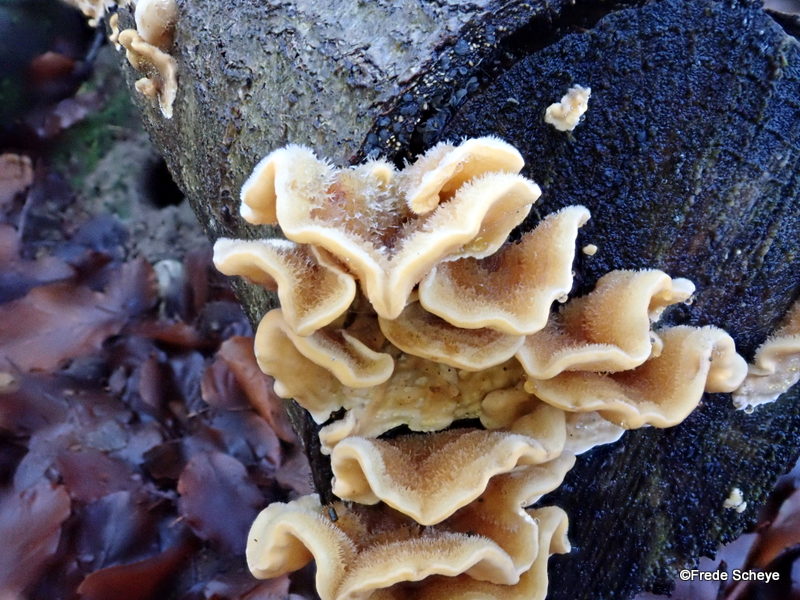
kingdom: Fungi
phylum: Basidiomycota
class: Agaricomycetes
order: Russulales
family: Stereaceae
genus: Stereum
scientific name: Stereum hirsutum
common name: håret lædersvamp
